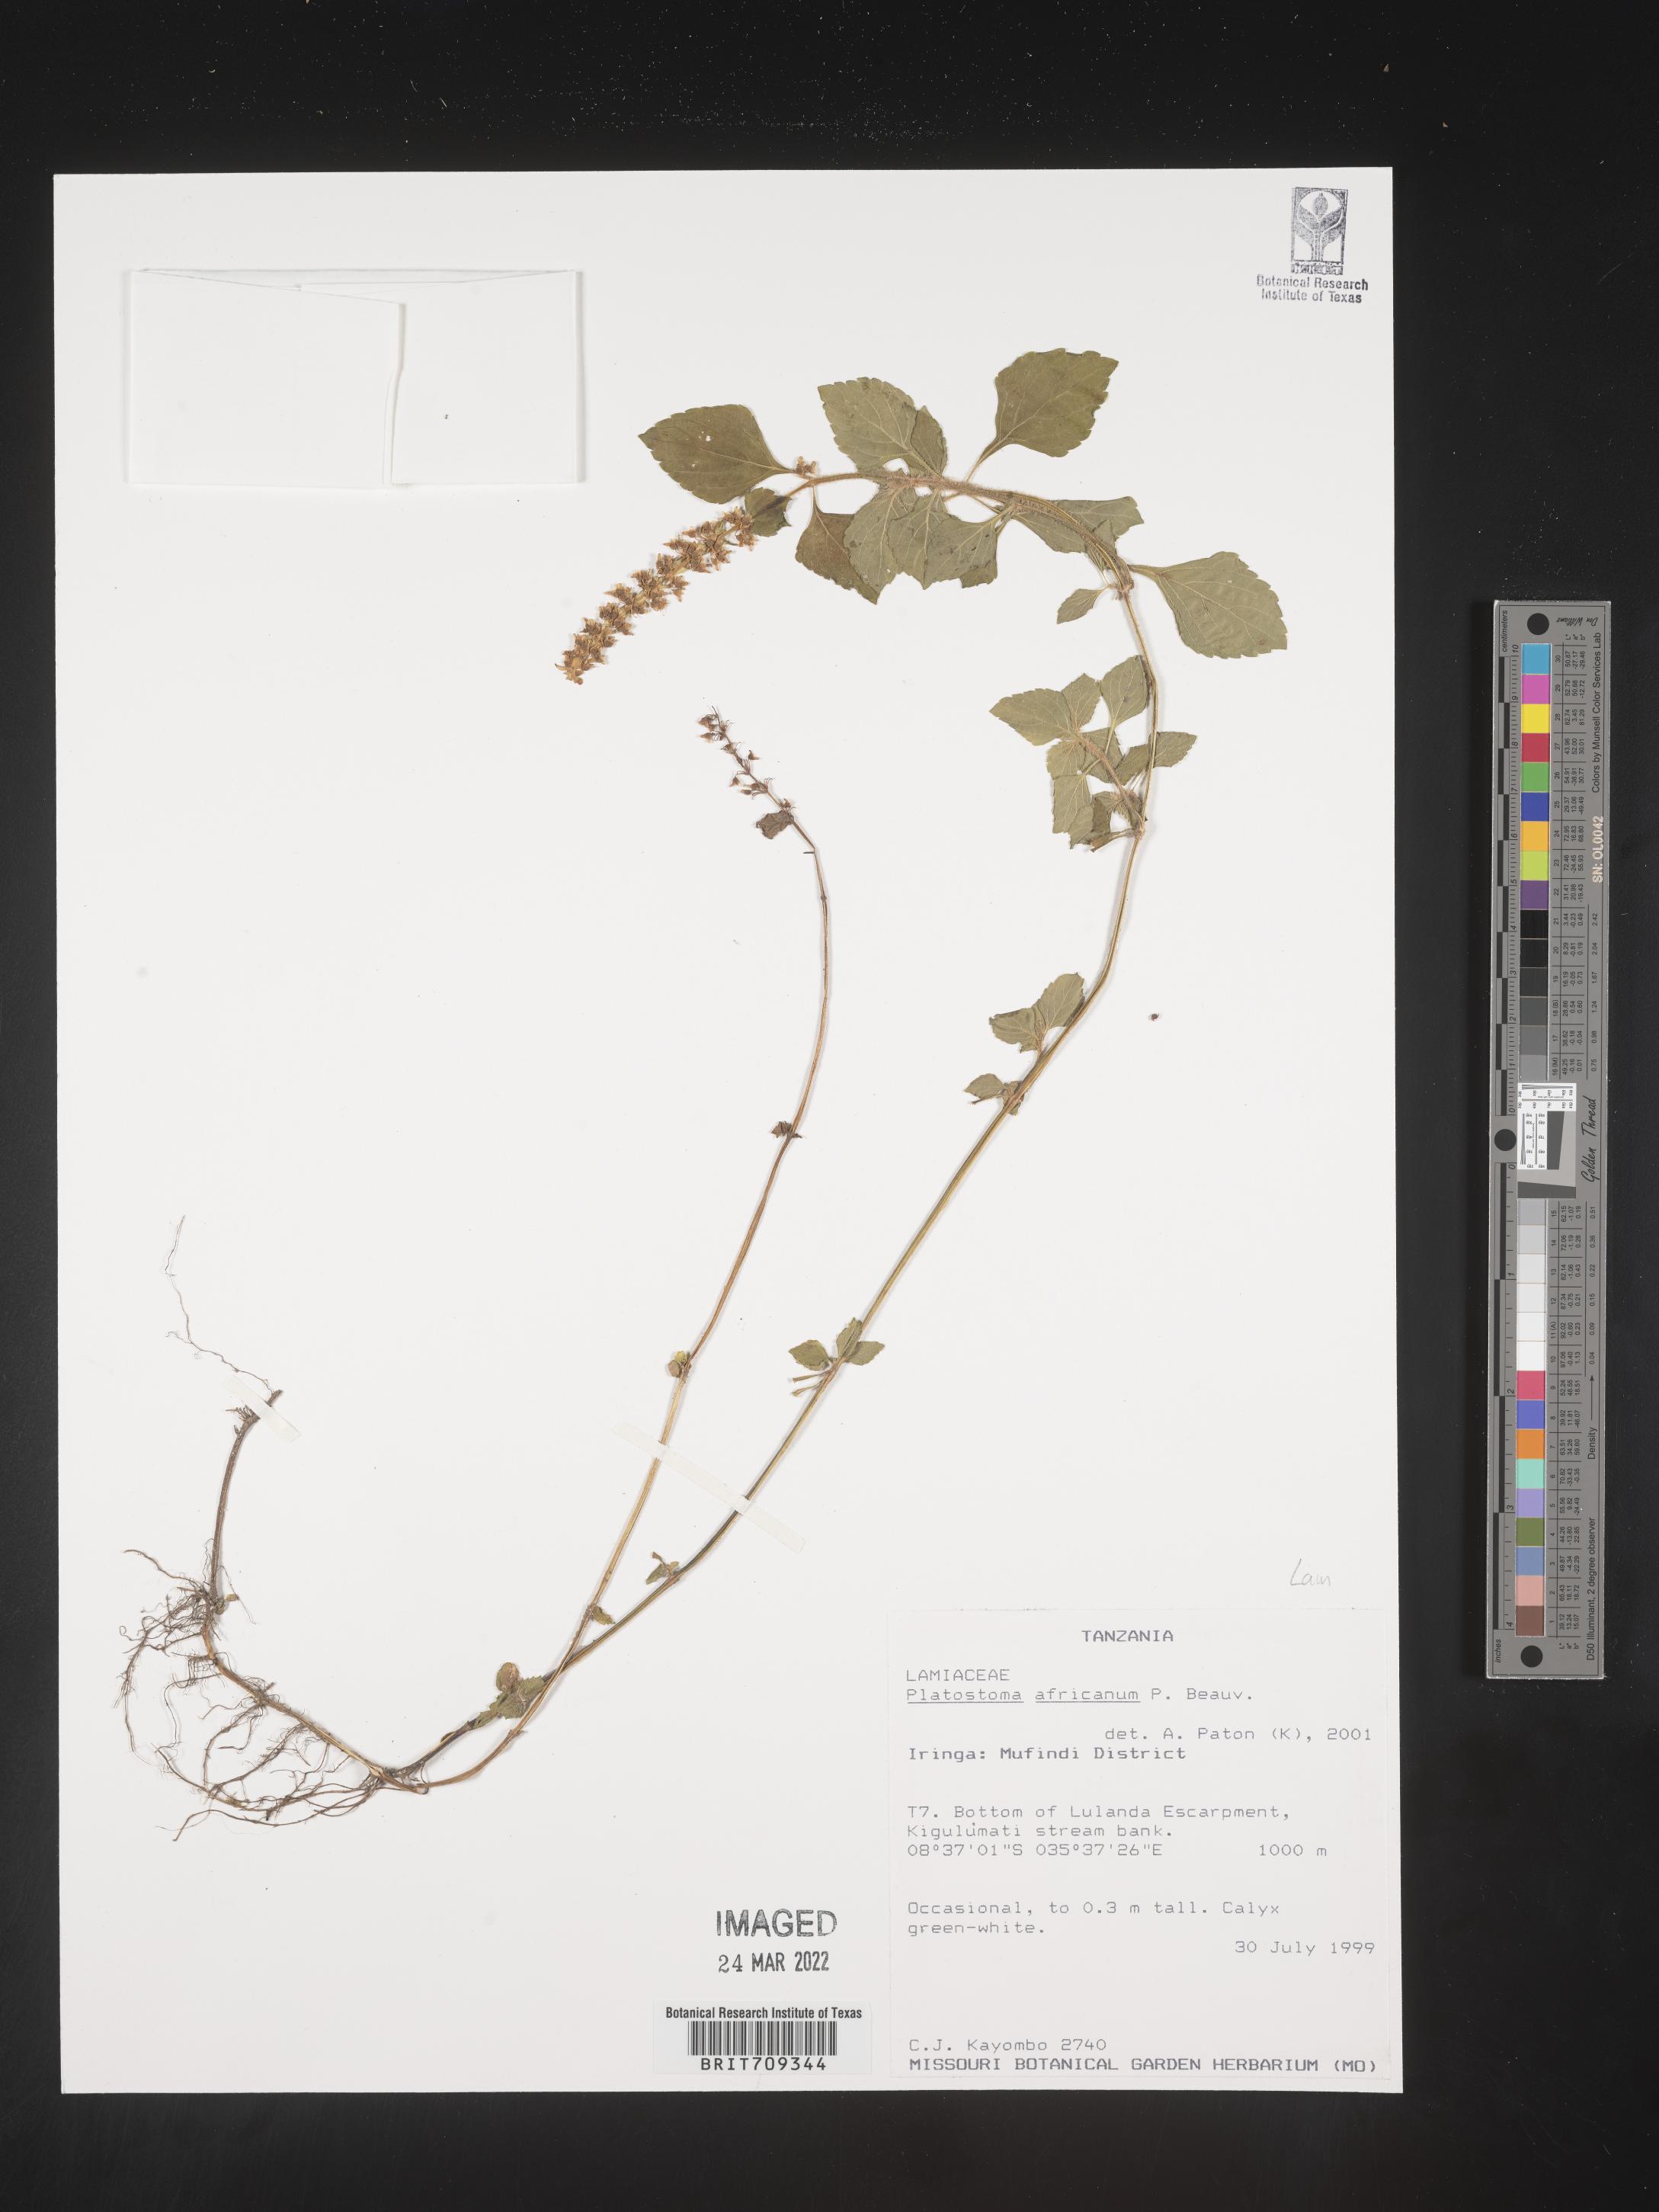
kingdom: Plantae
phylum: Tracheophyta
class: Magnoliopsida
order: Lamiales
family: Lamiaceae
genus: Platystoma
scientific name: Platystoma
